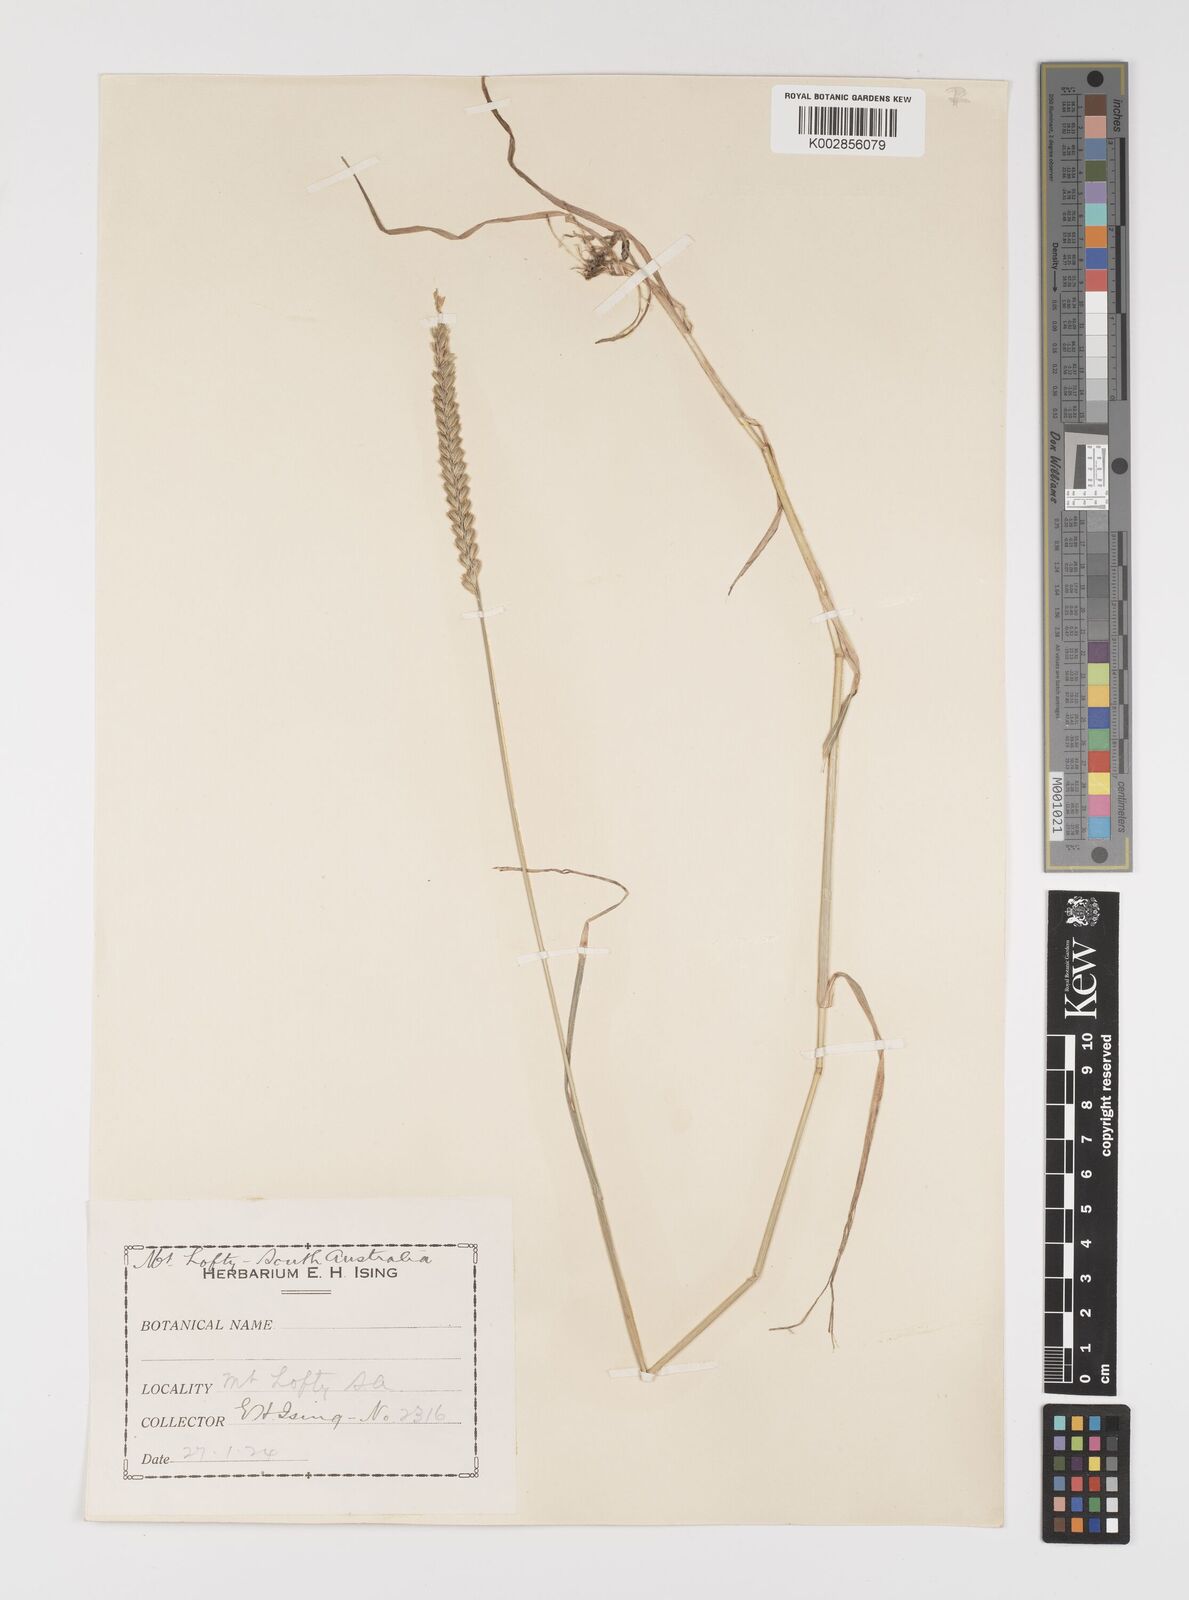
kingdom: Plantae
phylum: Tracheophyta
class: Liliopsida
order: Poales
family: Poaceae
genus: Cynosurus
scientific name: Cynosurus cristatus
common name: Crested dog's-tail
